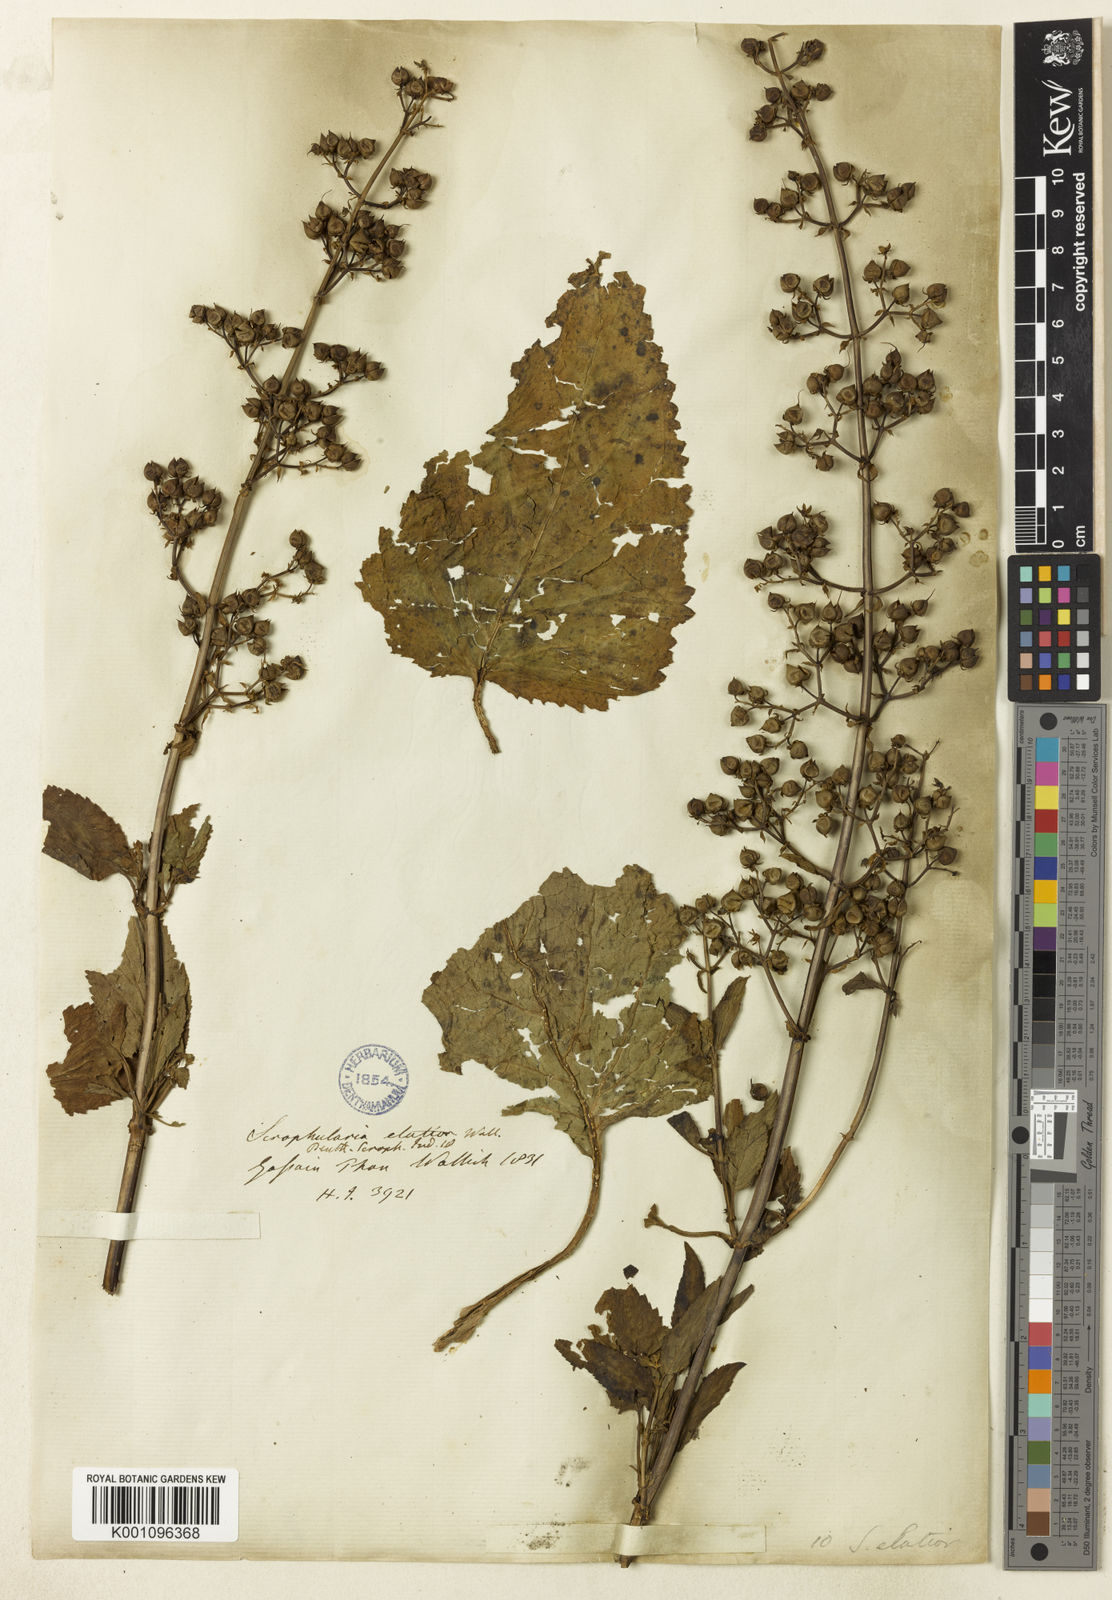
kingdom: Plantae
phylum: Tracheophyta
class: Magnoliopsida
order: Lamiales
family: Scrophulariaceae
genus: Scrophularia
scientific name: Scrophularia elatior
